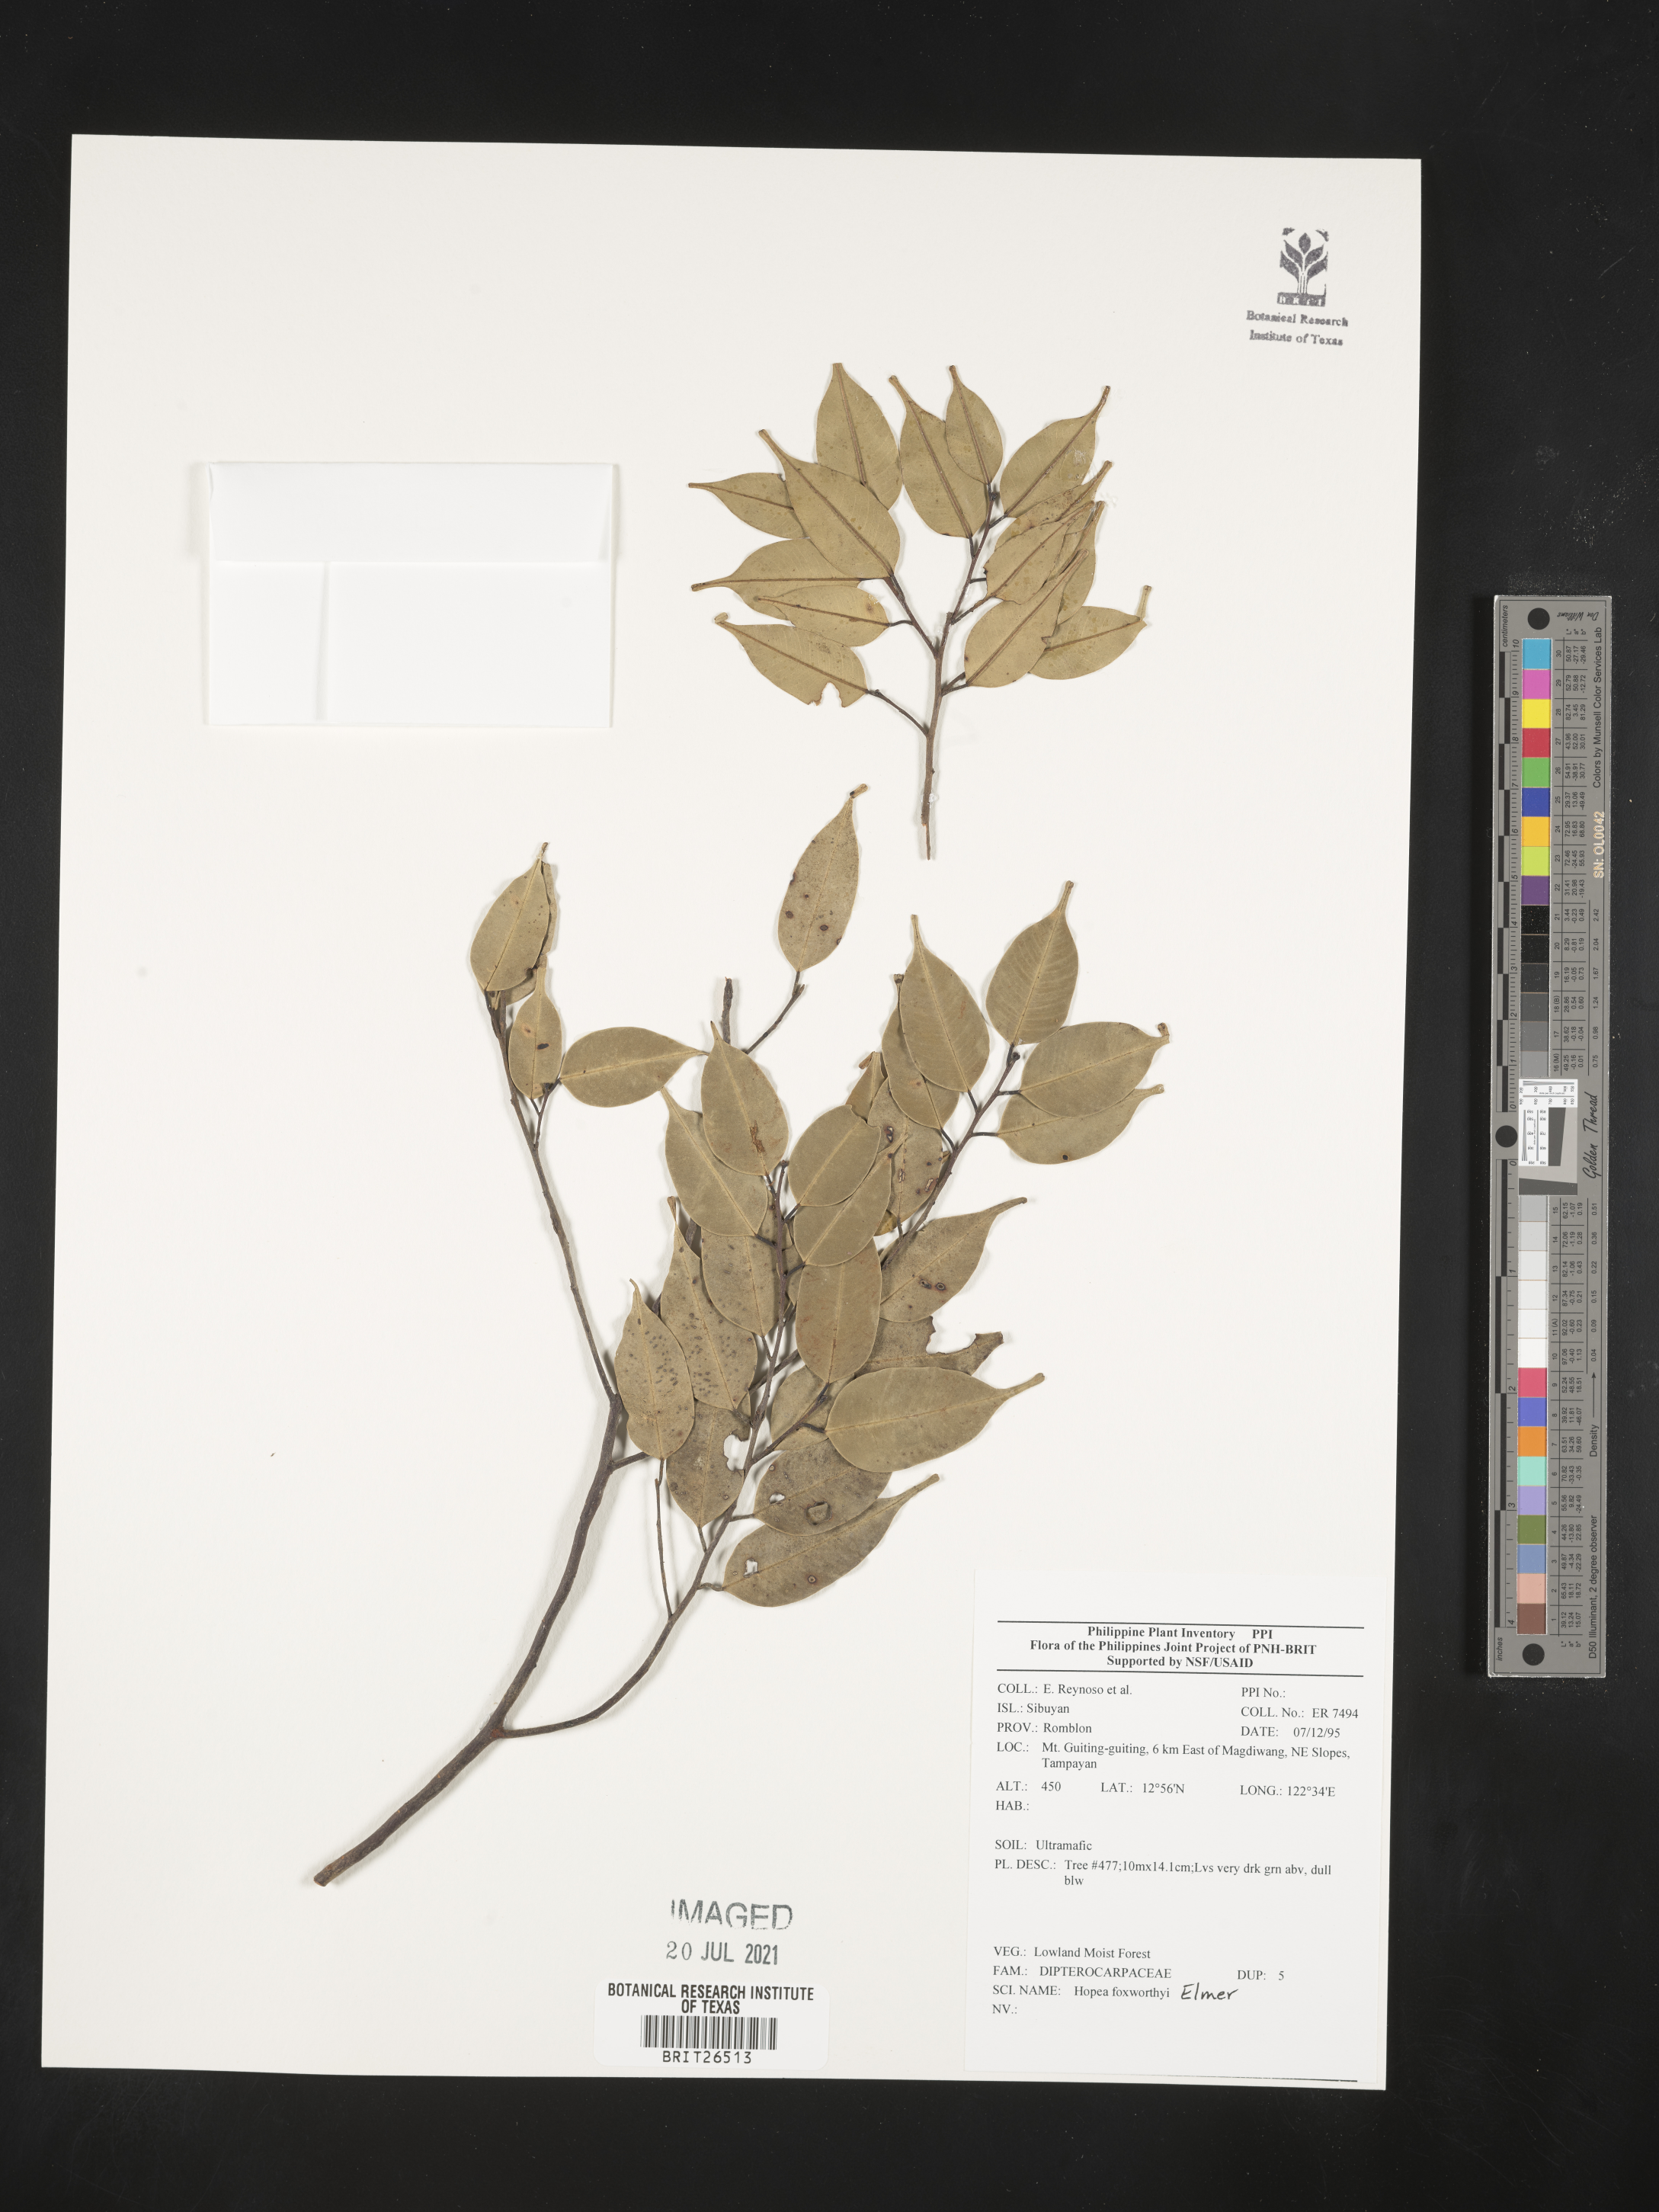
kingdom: Plantae
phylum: Tracheophyta
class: Magnoliopsida
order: Malvales
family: Dipterocarpaceae
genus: Hopea
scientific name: Hopea foxworthyi
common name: Dalingdingan
